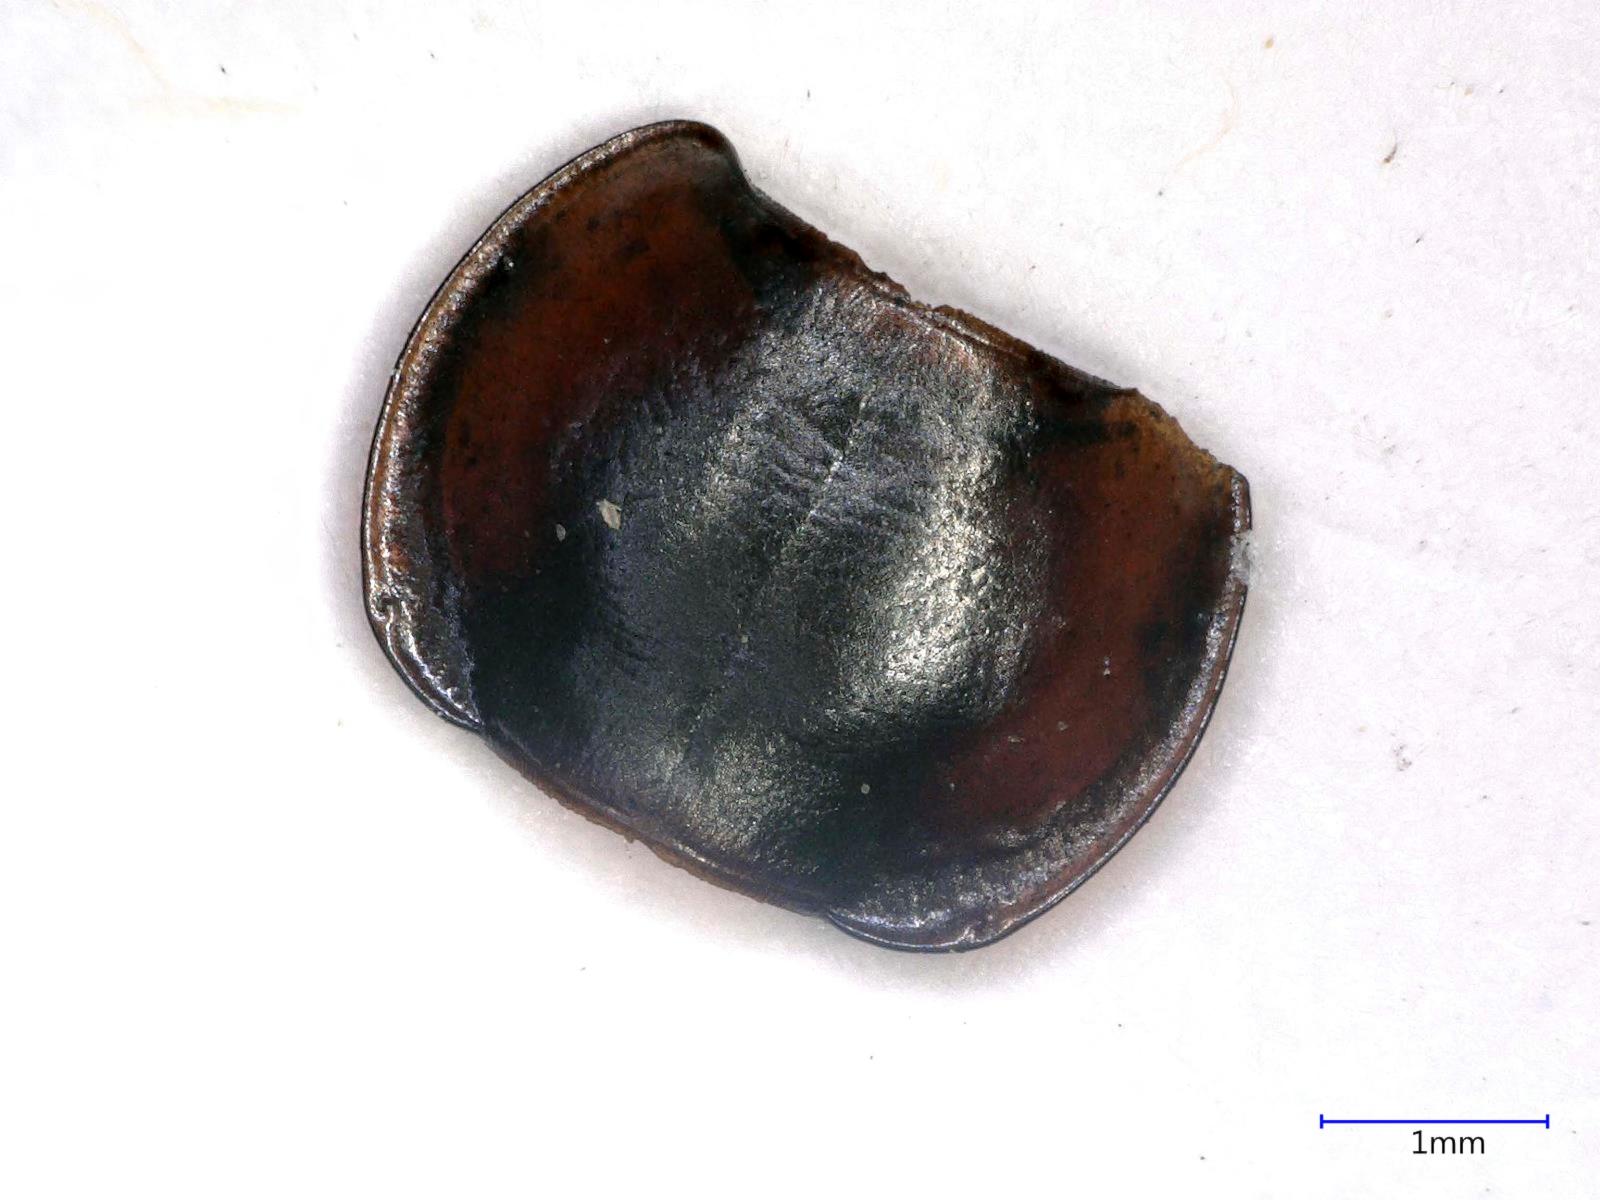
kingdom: Animalia
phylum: Arthropoda
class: Insecta
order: Coleoptera
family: Carabidae
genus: Tanystoma
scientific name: Tanystoma maculicolle
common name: Tule beetle
